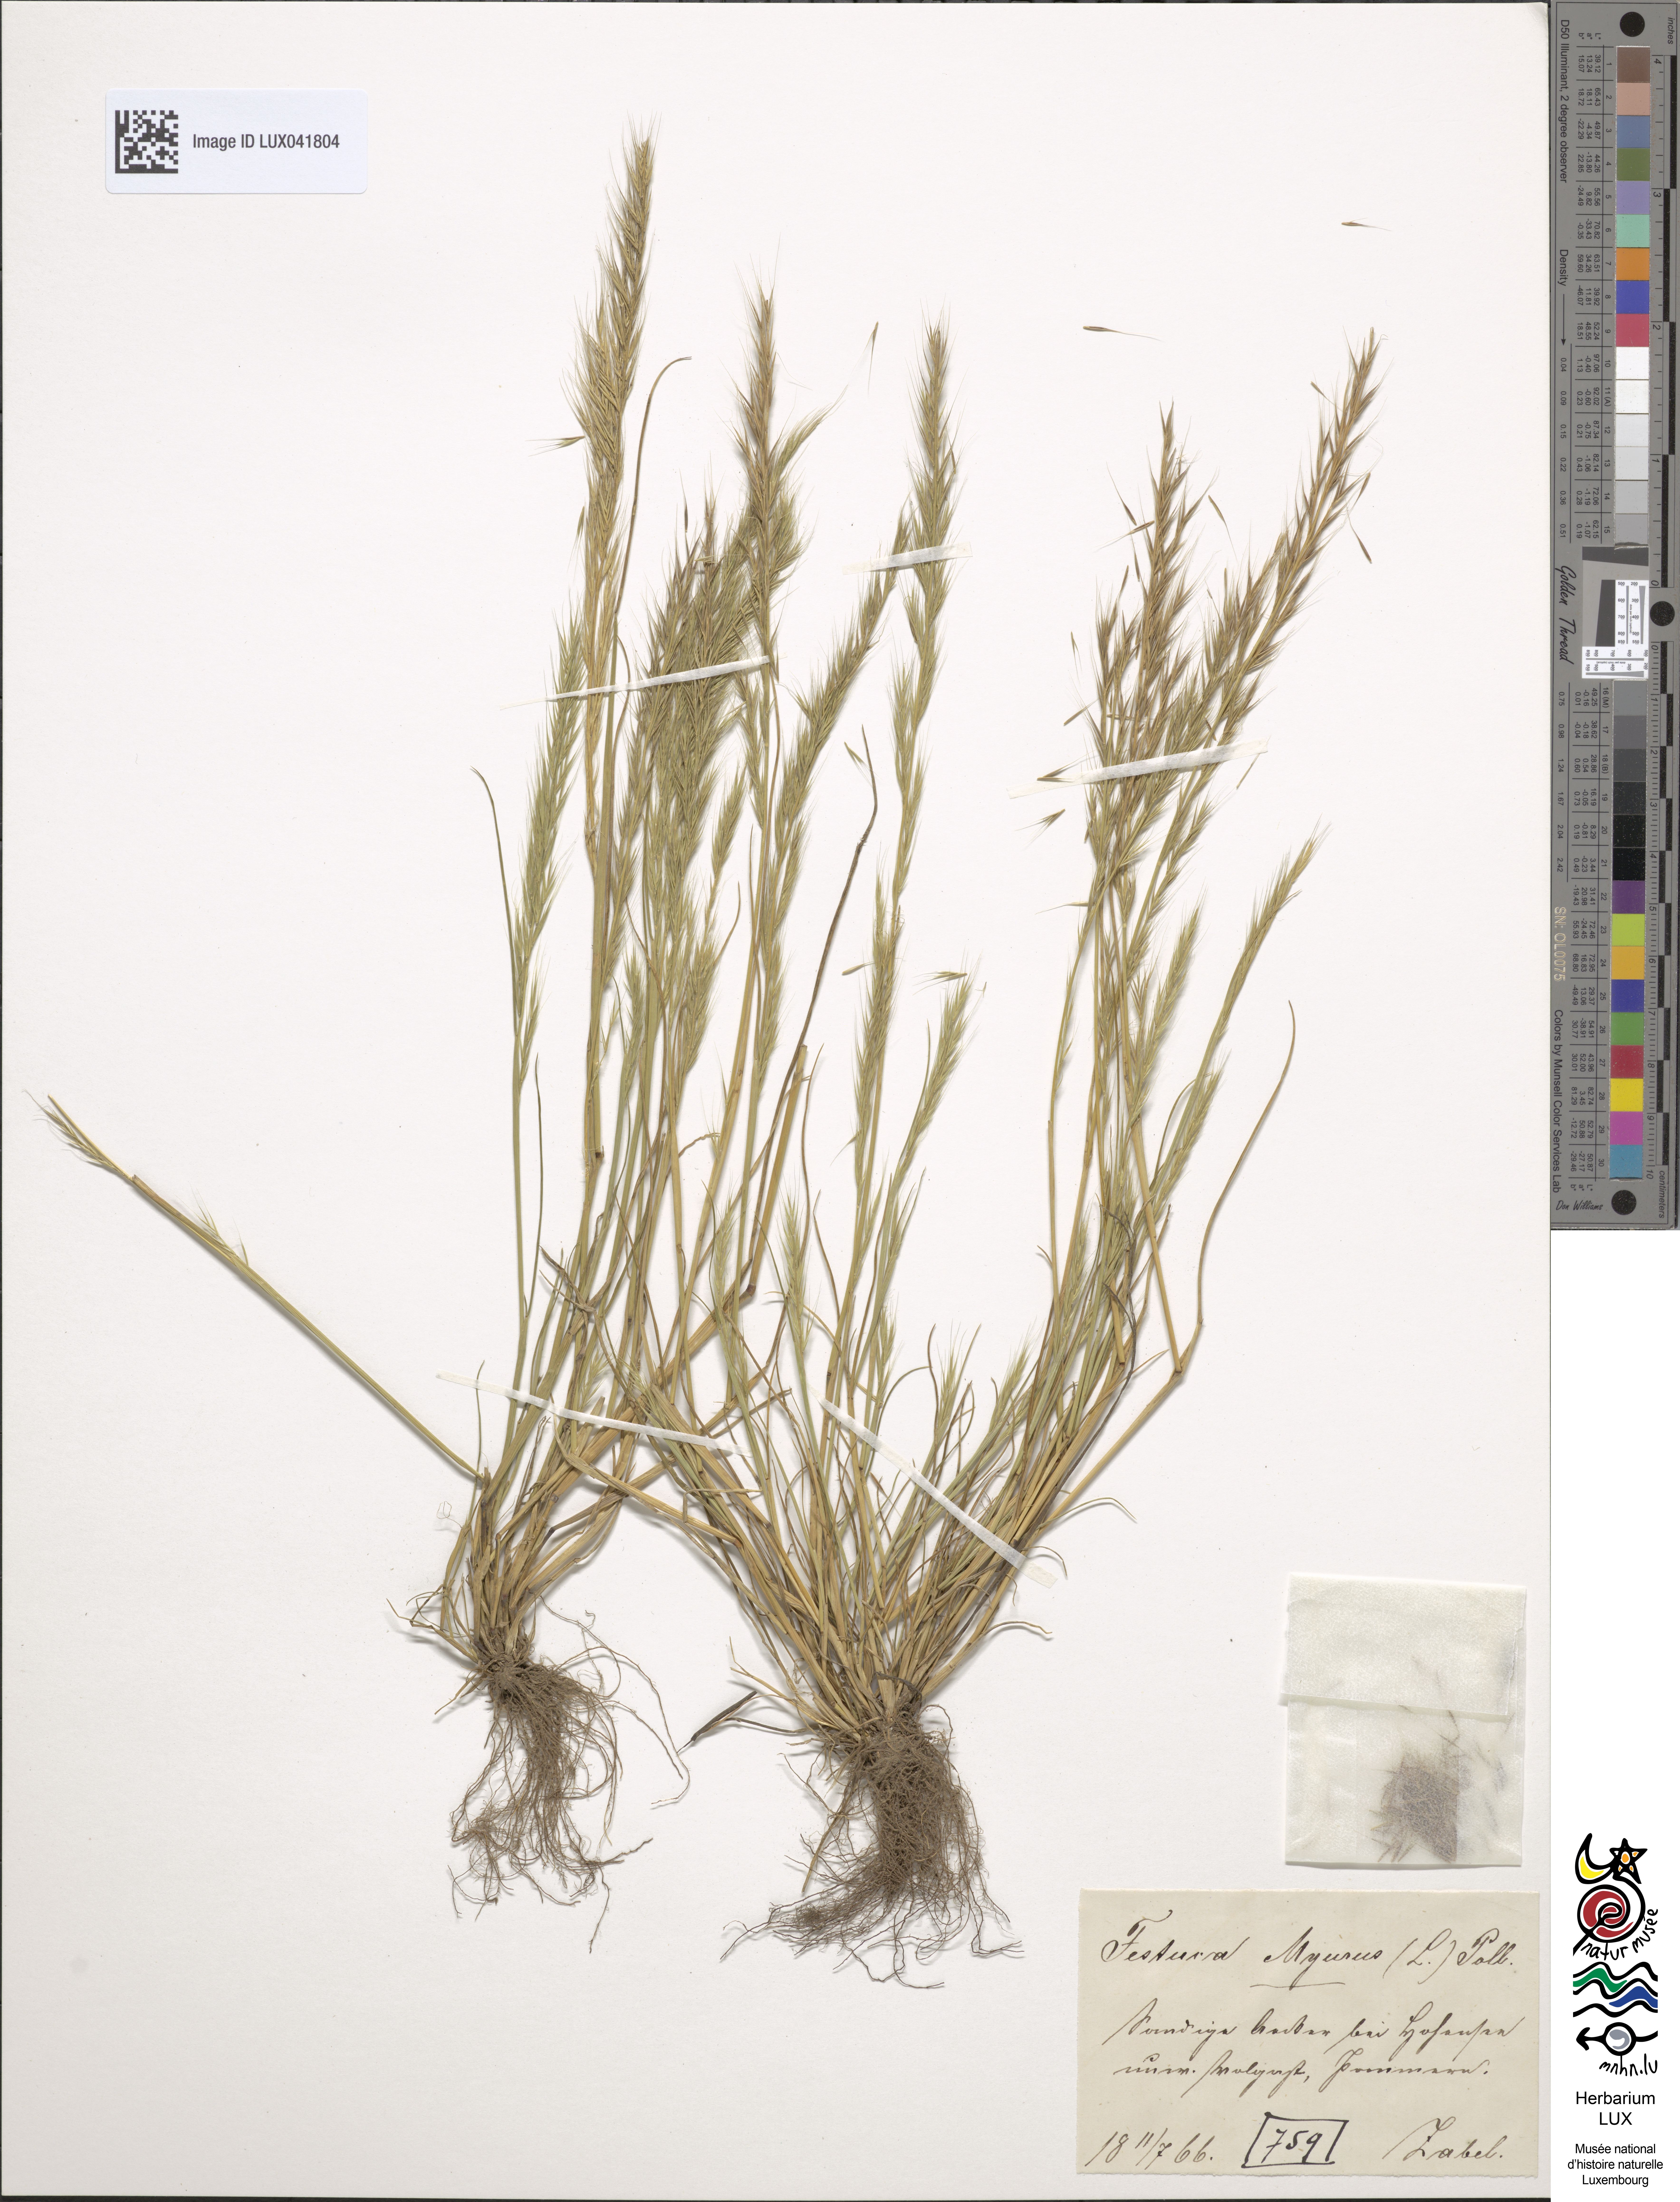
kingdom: Plantae
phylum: Tracheophyta
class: Liliopsida
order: Poales
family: Poaceae
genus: Festuca
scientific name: Festuca myuros
